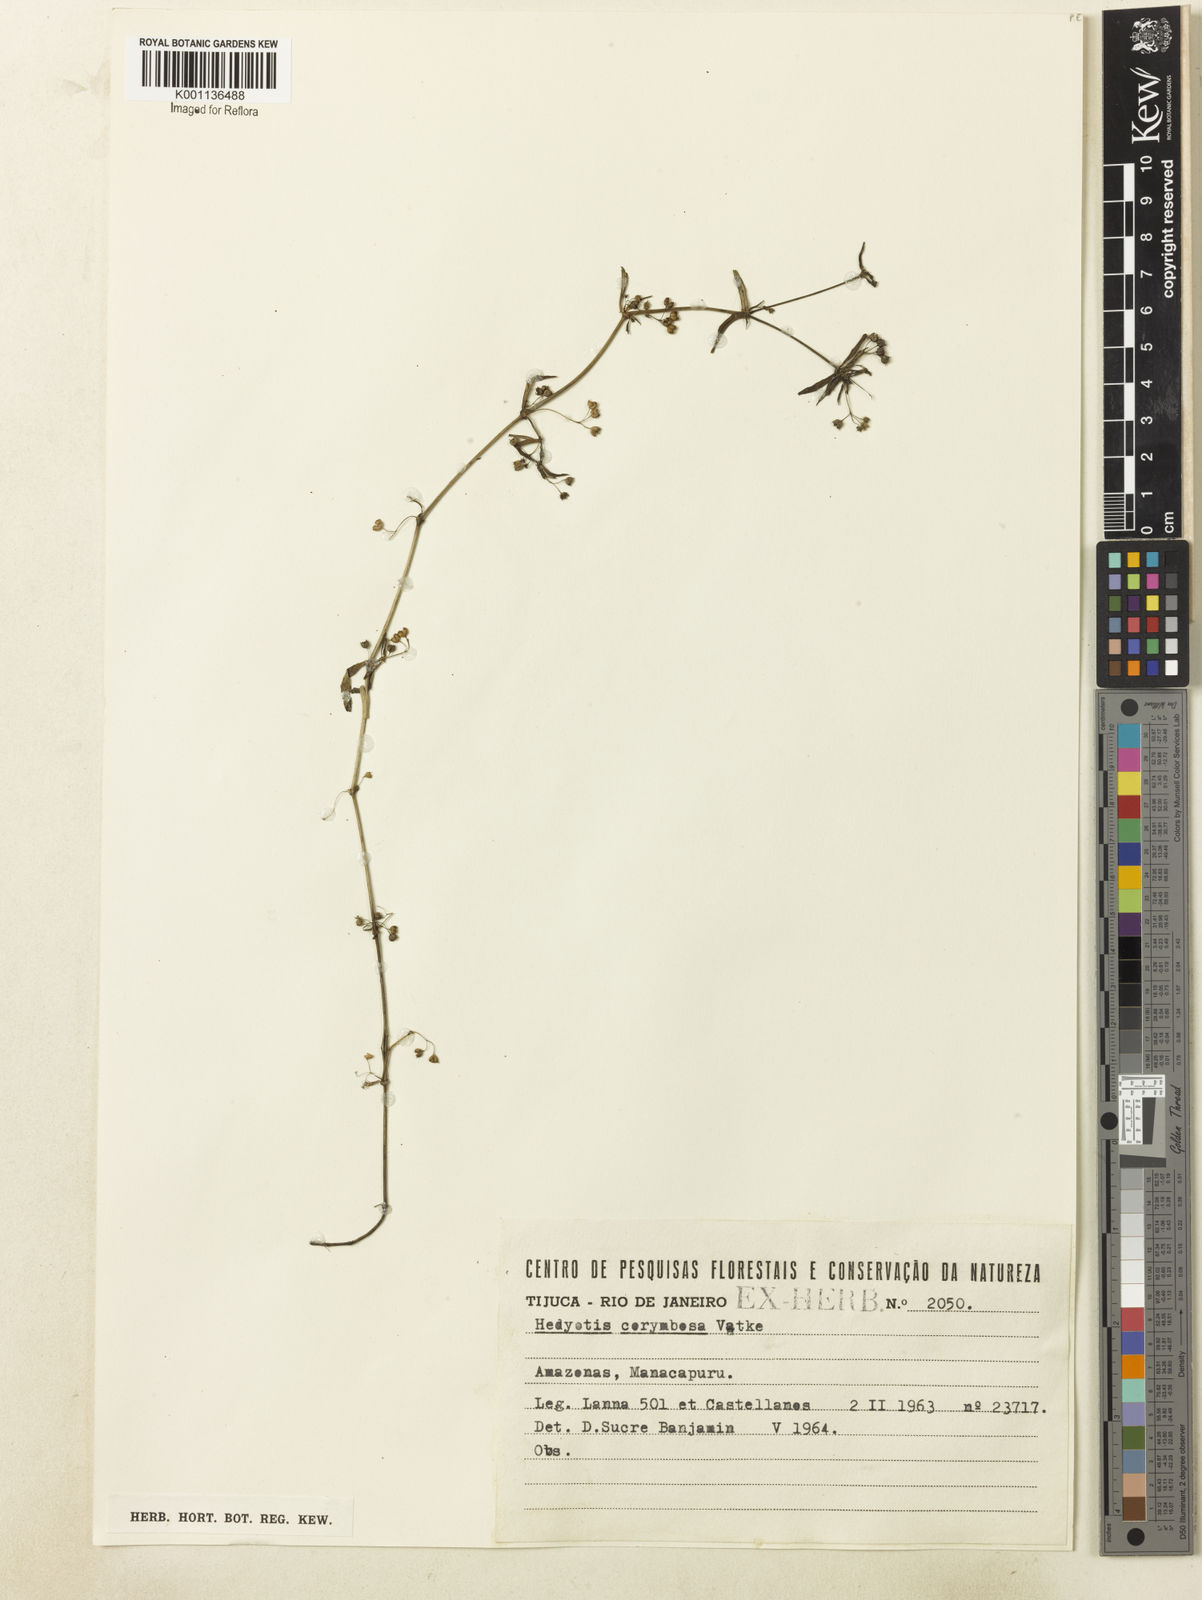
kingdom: Plantae
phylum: Tracheophyta
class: Magnoliopsida
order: Gentianales
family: Rubiaceae
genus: Oldenlandia
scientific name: Oldenlandia corymbosa
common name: Flat-top mille graines
